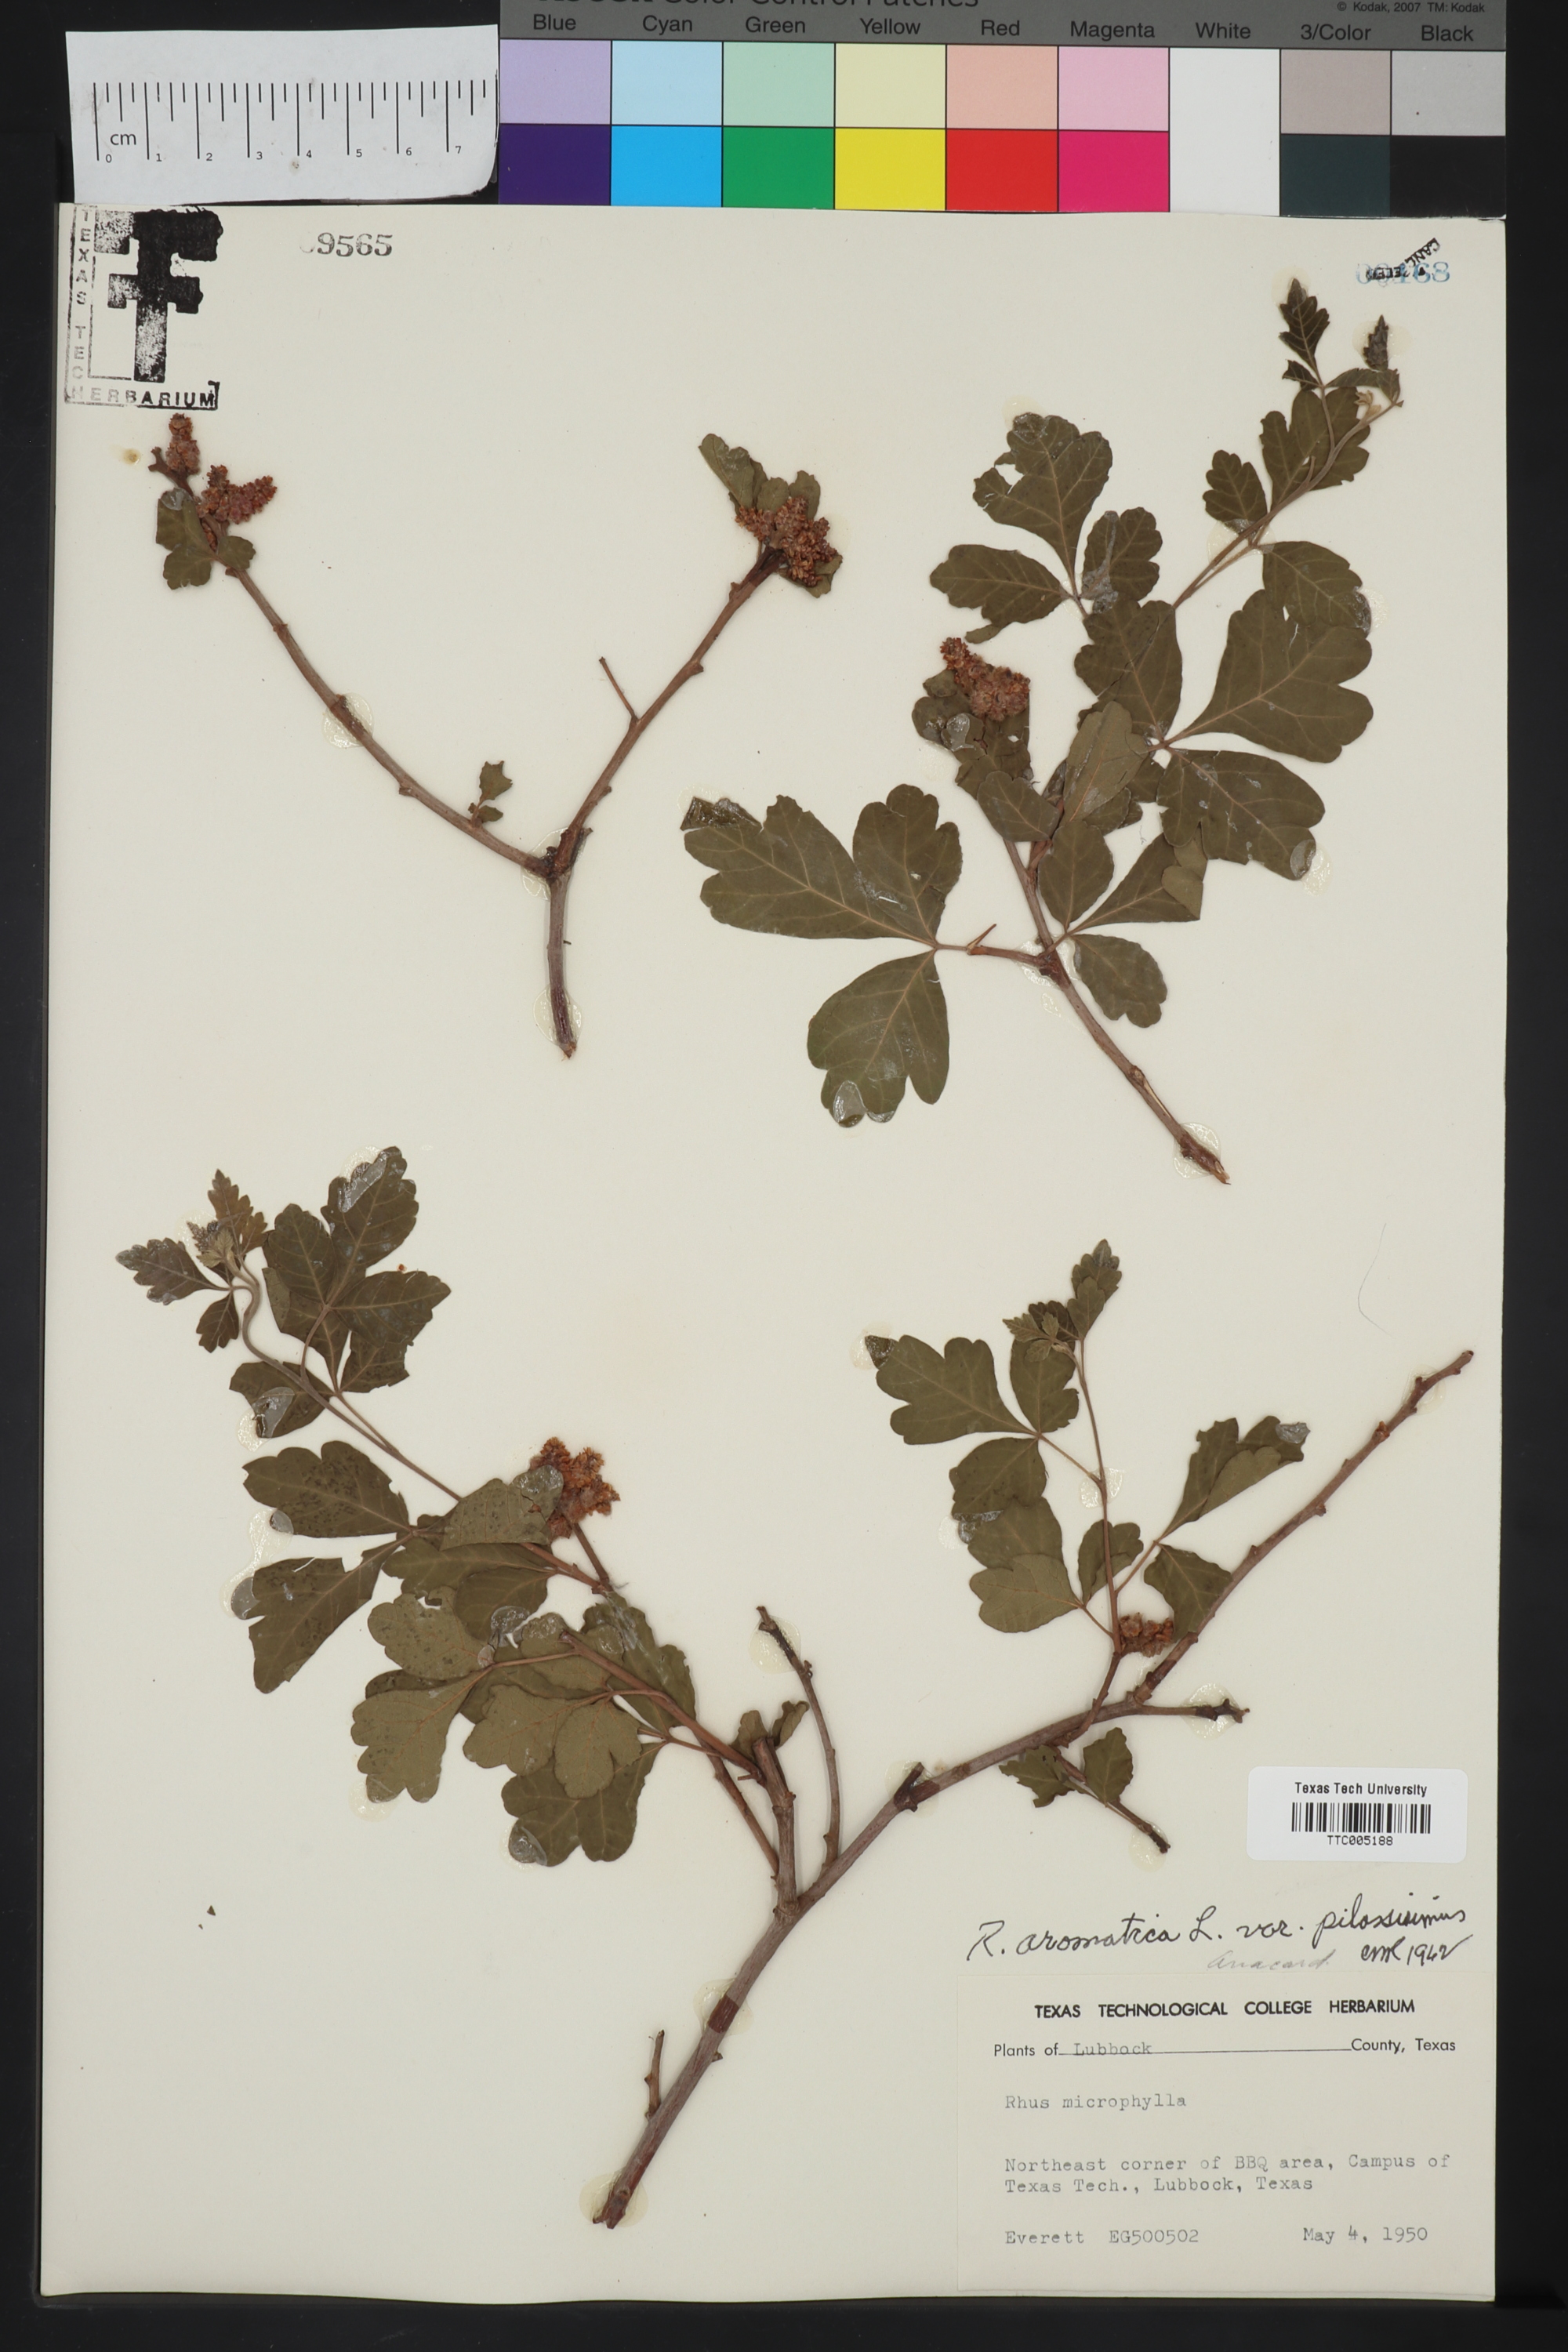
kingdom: Plantae
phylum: Tracheophyta
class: Magnoliopsida
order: Sapindales
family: Anacardiaceae
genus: Rhus
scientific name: Rhus aromatica
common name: Aromatic sumac
